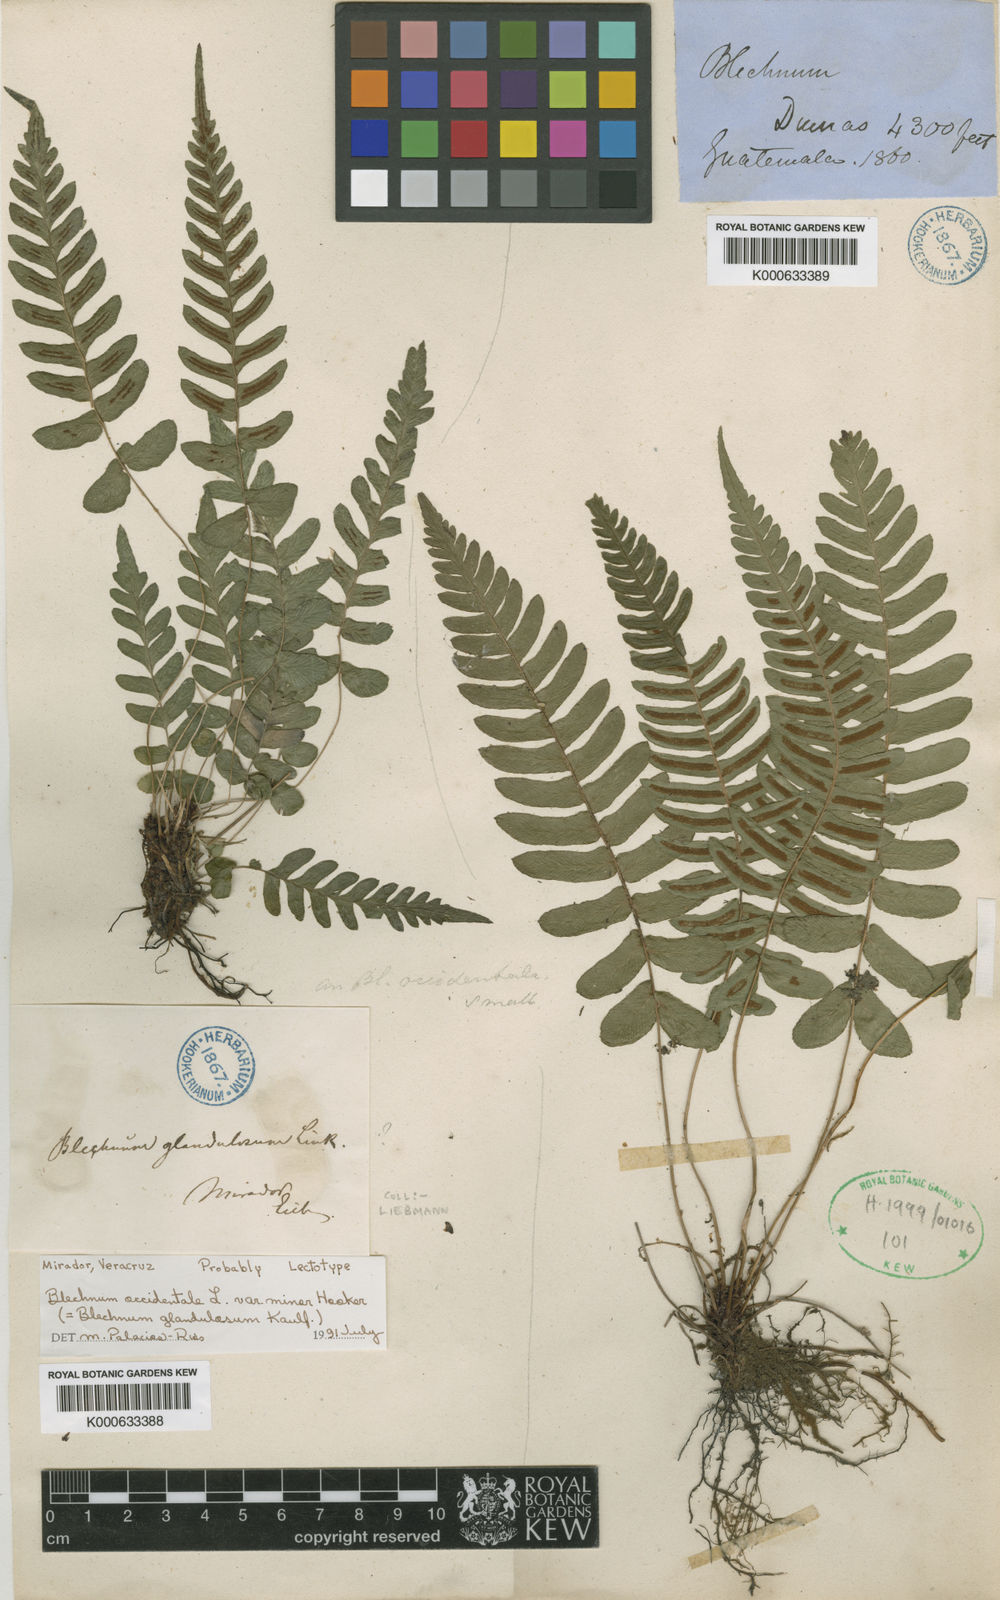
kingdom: Plantae
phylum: Tracheophyta
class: Polypodiopsida
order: Polypodiales
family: Blechnaceae
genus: Blechnum
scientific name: Blechnum occidentale
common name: Hammock fern
